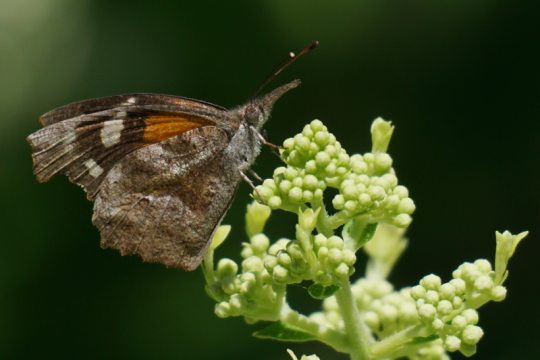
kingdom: Animalia
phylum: Arthropoda
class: Insecta
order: Lepidoptera
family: Nymphalidae
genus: Libytheana
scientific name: Libytheana carinenta
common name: American Snout
